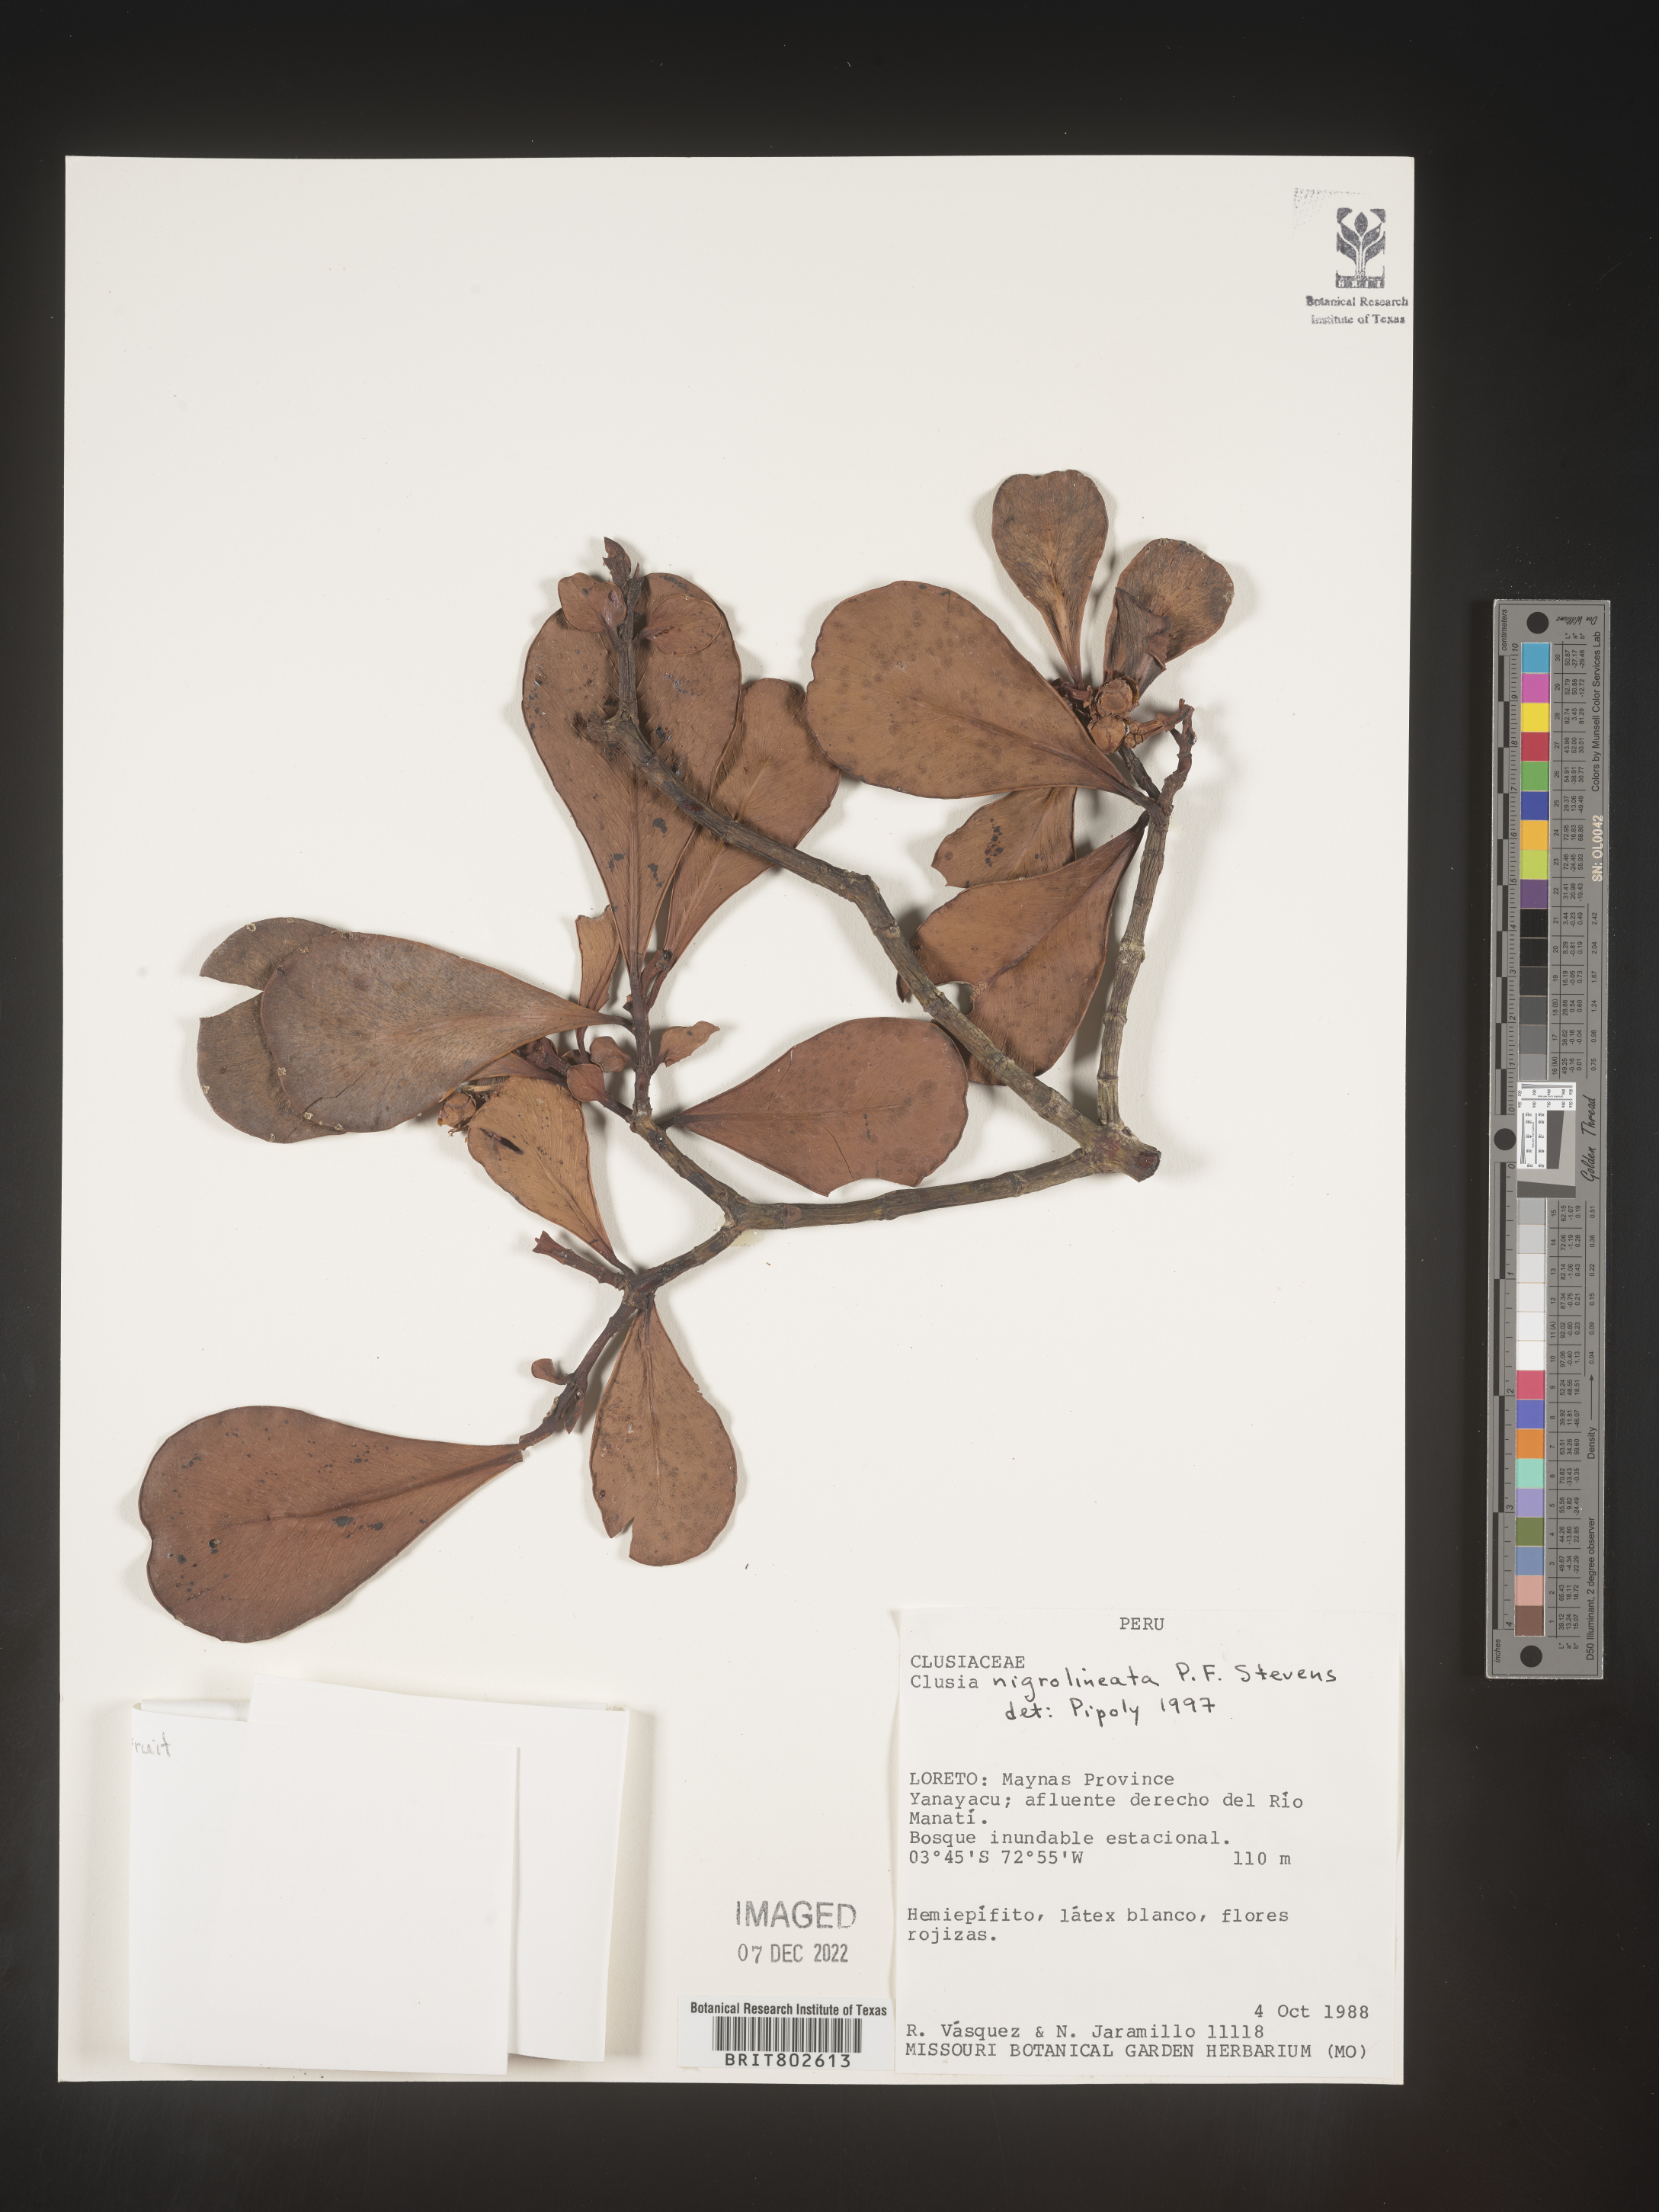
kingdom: Plantae
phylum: Tracheophyta
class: Magnoliopsida
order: Malpighiales
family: Clusiaceae
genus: Clusia
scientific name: Clusia nigrolineata
